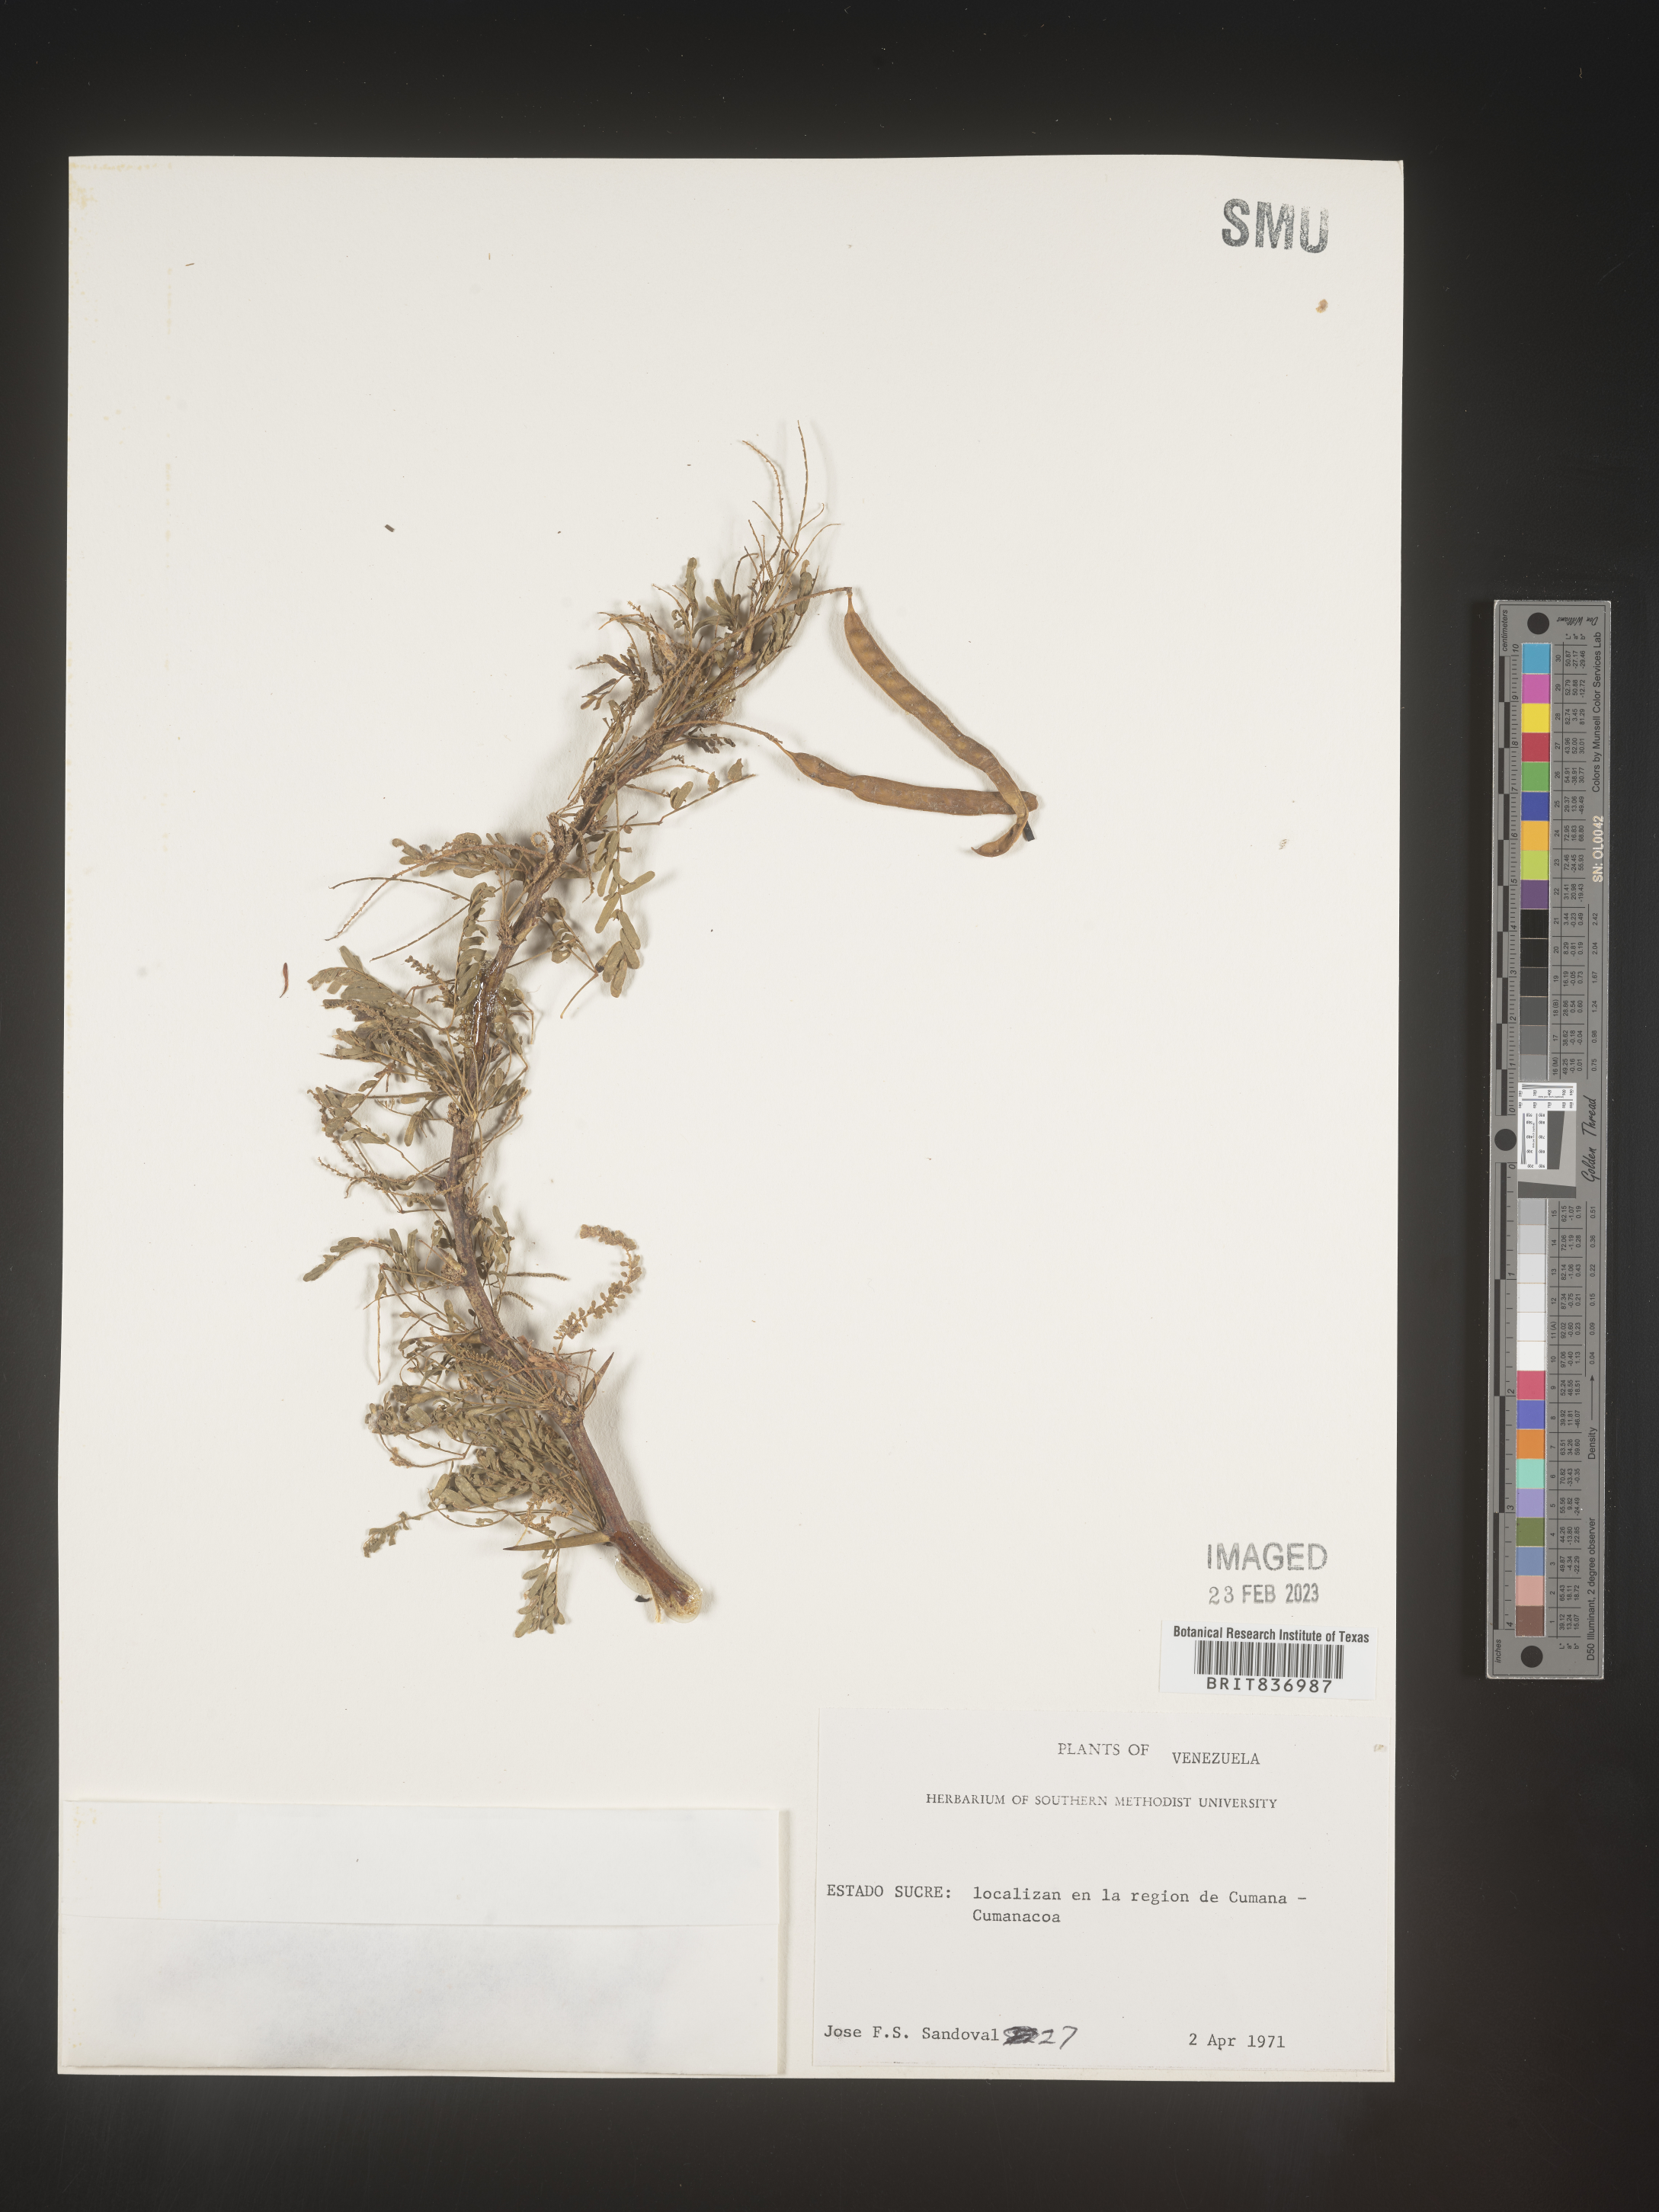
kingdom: Plantae
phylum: Tracheophyta
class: Magnoliopsida
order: Fabales
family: Fabaceae
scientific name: Fabaceae
